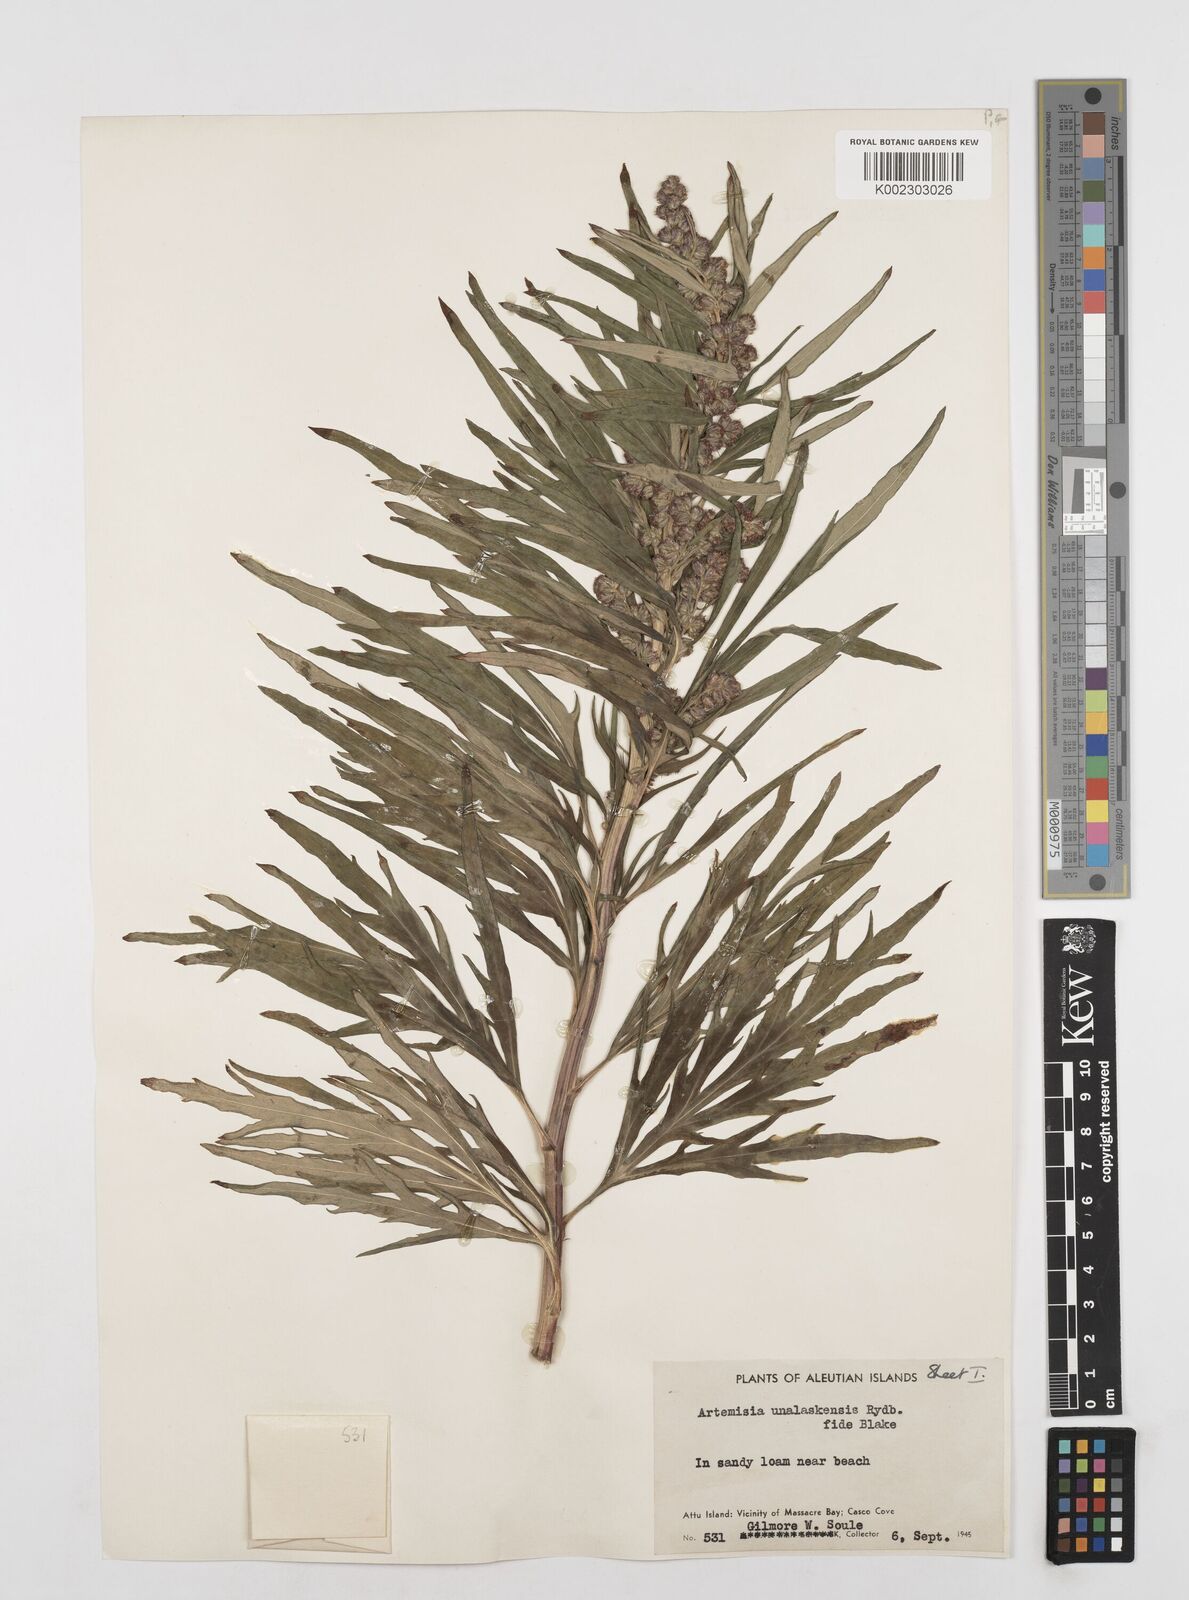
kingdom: Plantae
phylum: Tracheophyta
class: Magnoliopsida
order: Asterales
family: Asteraceae
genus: Artemisia
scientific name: Artemisia tilesii
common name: Aleutian mugwort
